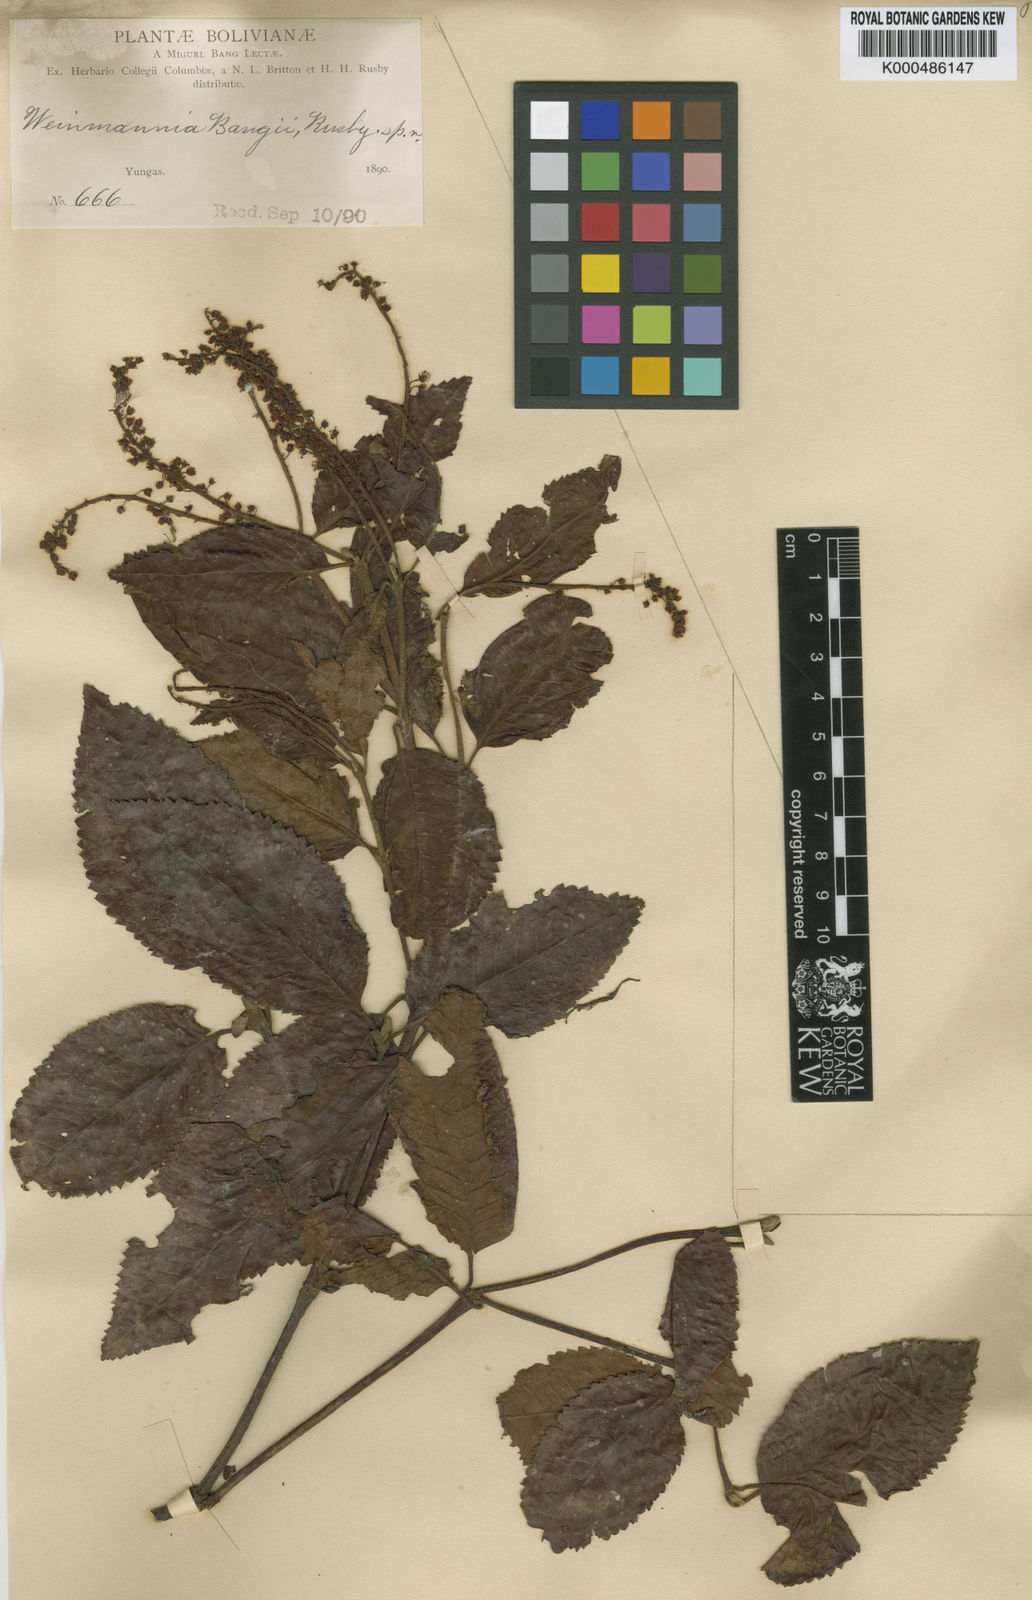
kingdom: Plantae
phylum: Tracheophyta
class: Magnoliopsida
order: Oxalidales
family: Cunoniaceae
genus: Weinmannia
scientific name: Weinmannia bangii
